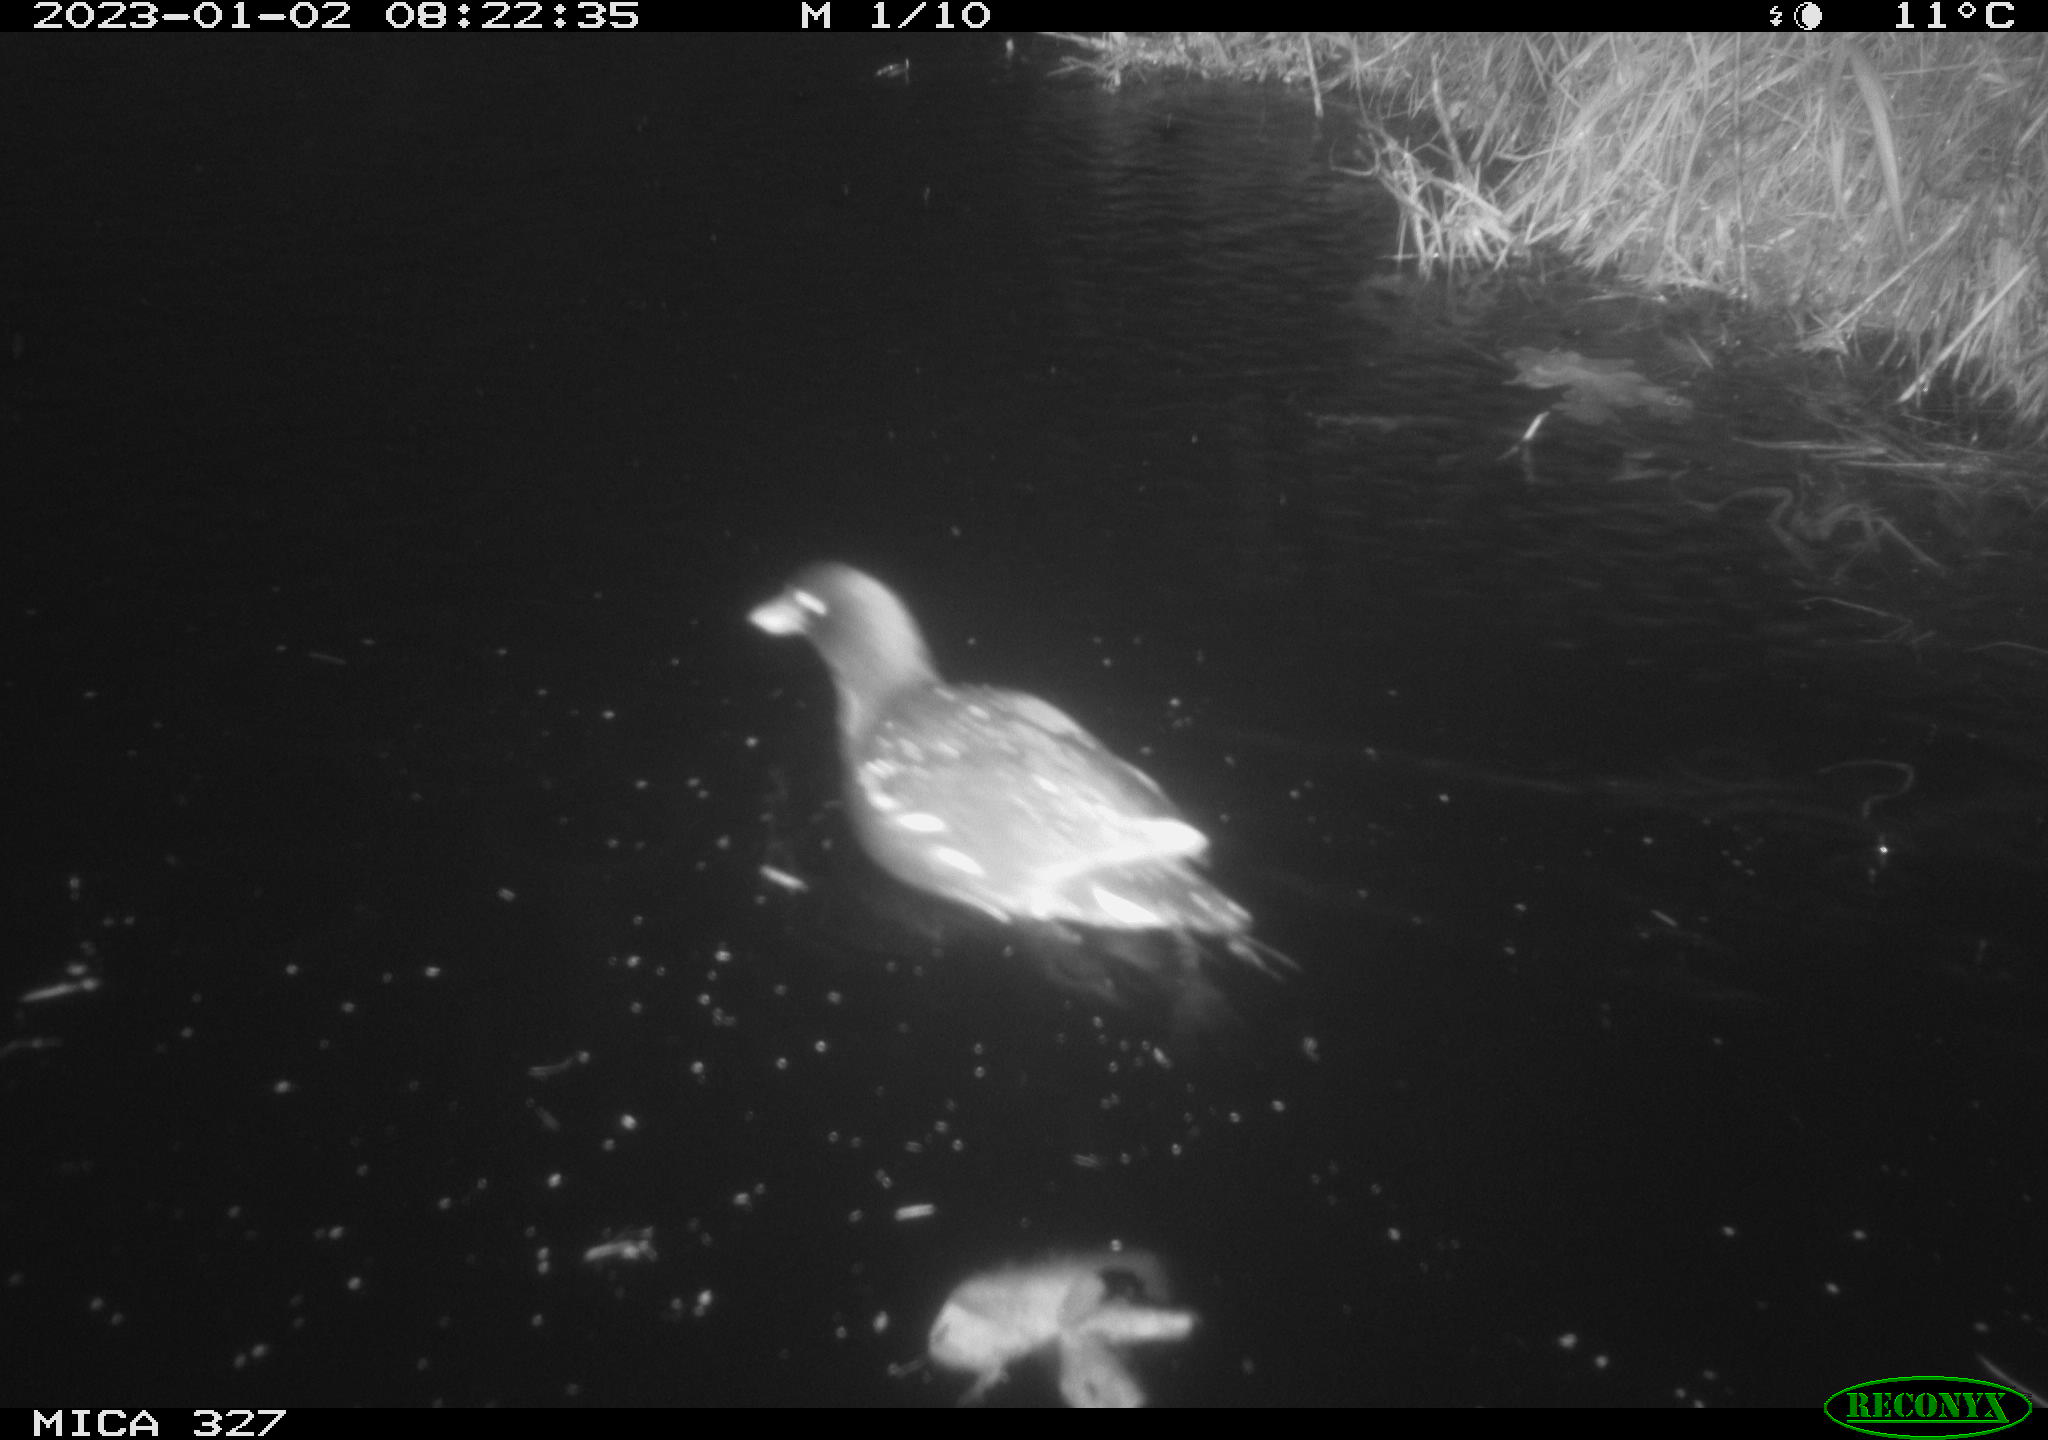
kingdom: Animalia
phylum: Chordata
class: Aves
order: Gruiformes
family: Rallidae
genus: Gallinula
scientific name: Gallinula chloropus
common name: Common moorhen
